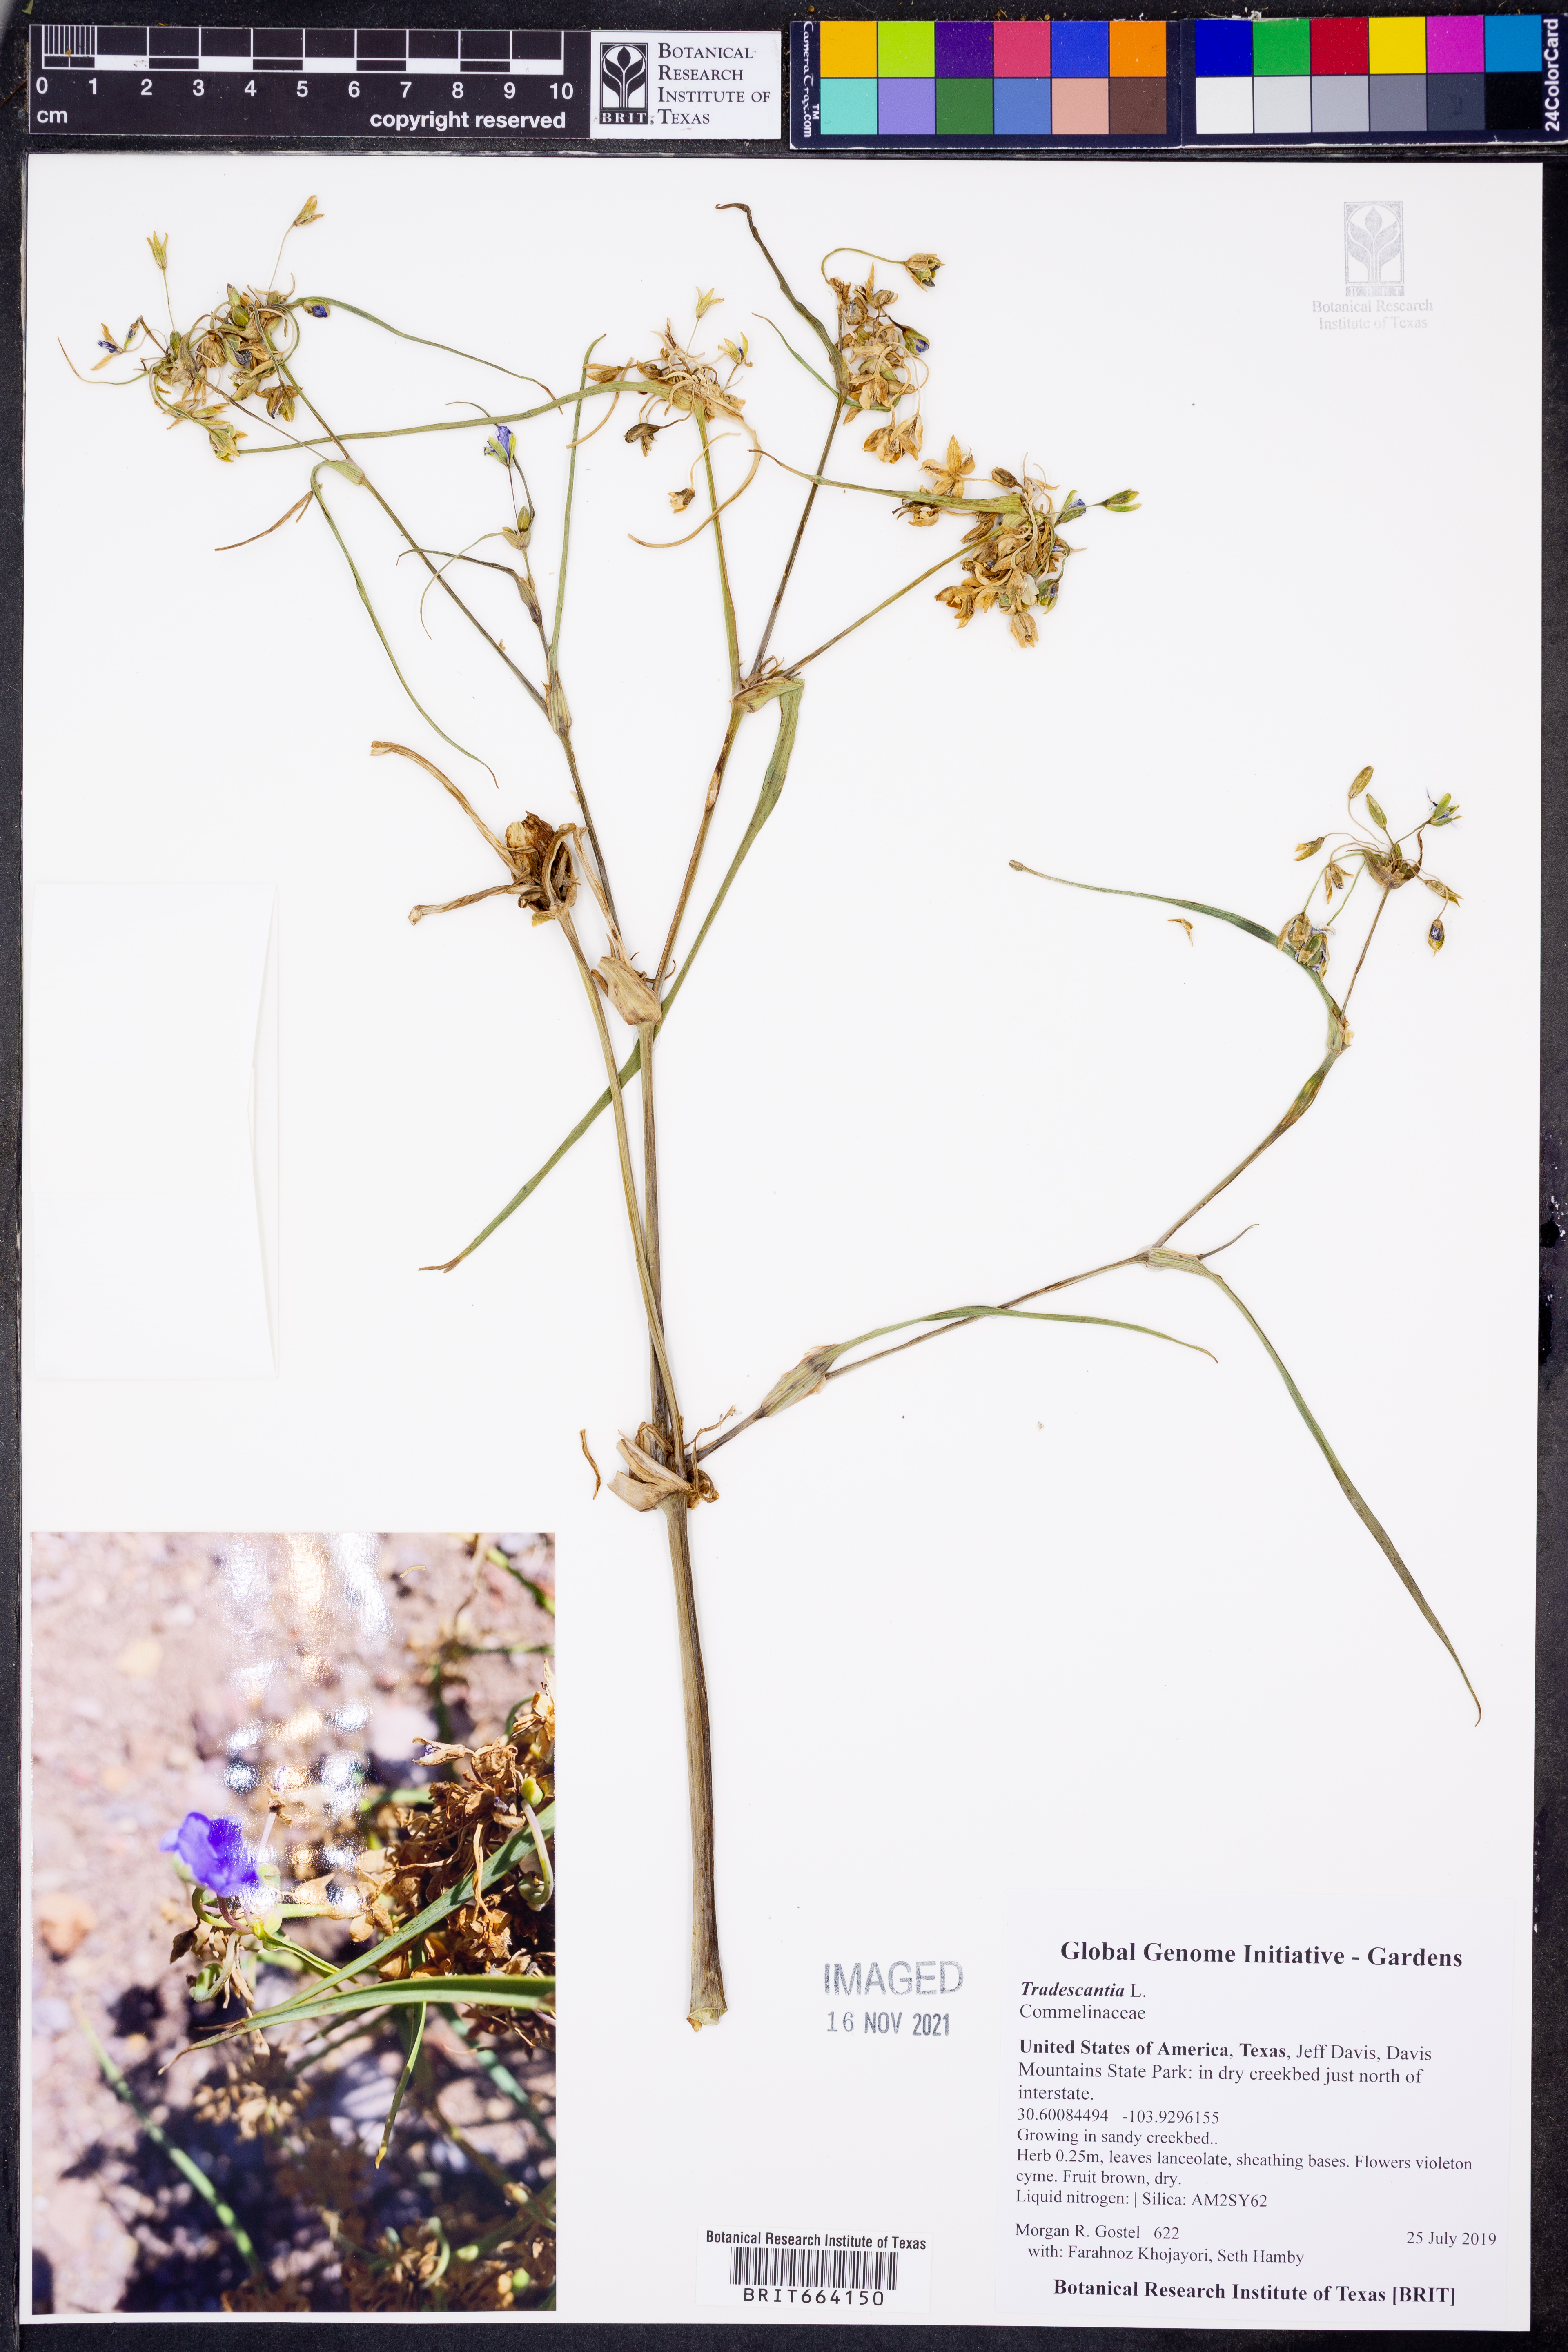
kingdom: Plantae
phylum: Tracheophyta
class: Liliopsida
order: Commelinales
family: Commelinaceae
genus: Tradescantia
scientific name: Tradescantia
